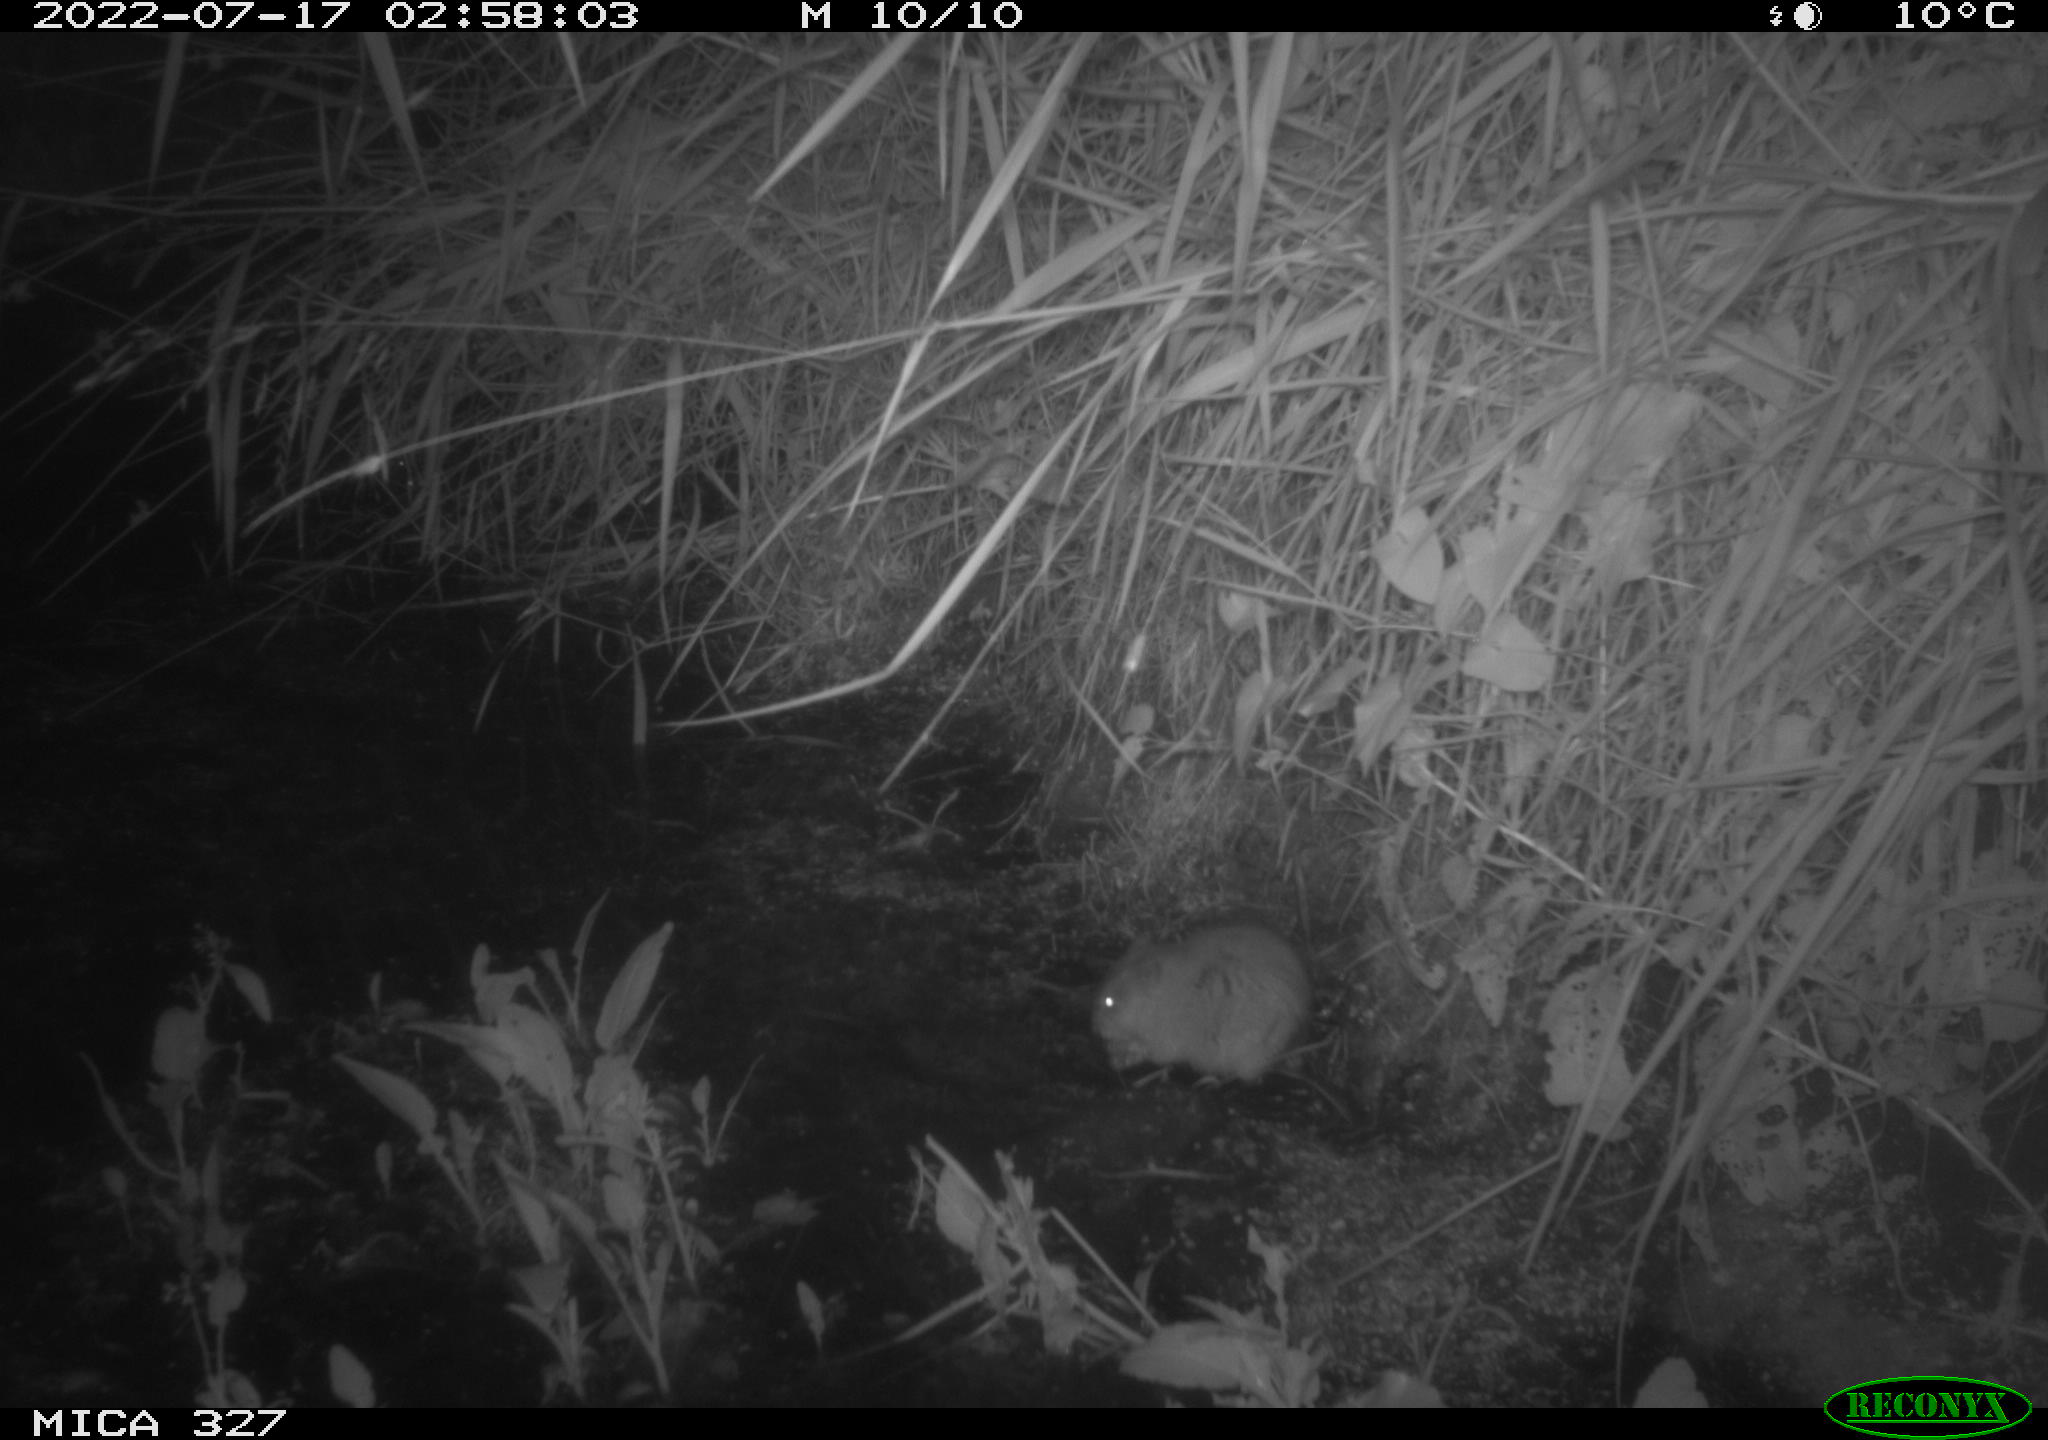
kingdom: Animalia
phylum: Chordata
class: Mammalia
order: Rodentia
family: Cricetidae
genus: Ondatra
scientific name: Ondatra zibethicus
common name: Muskrat
